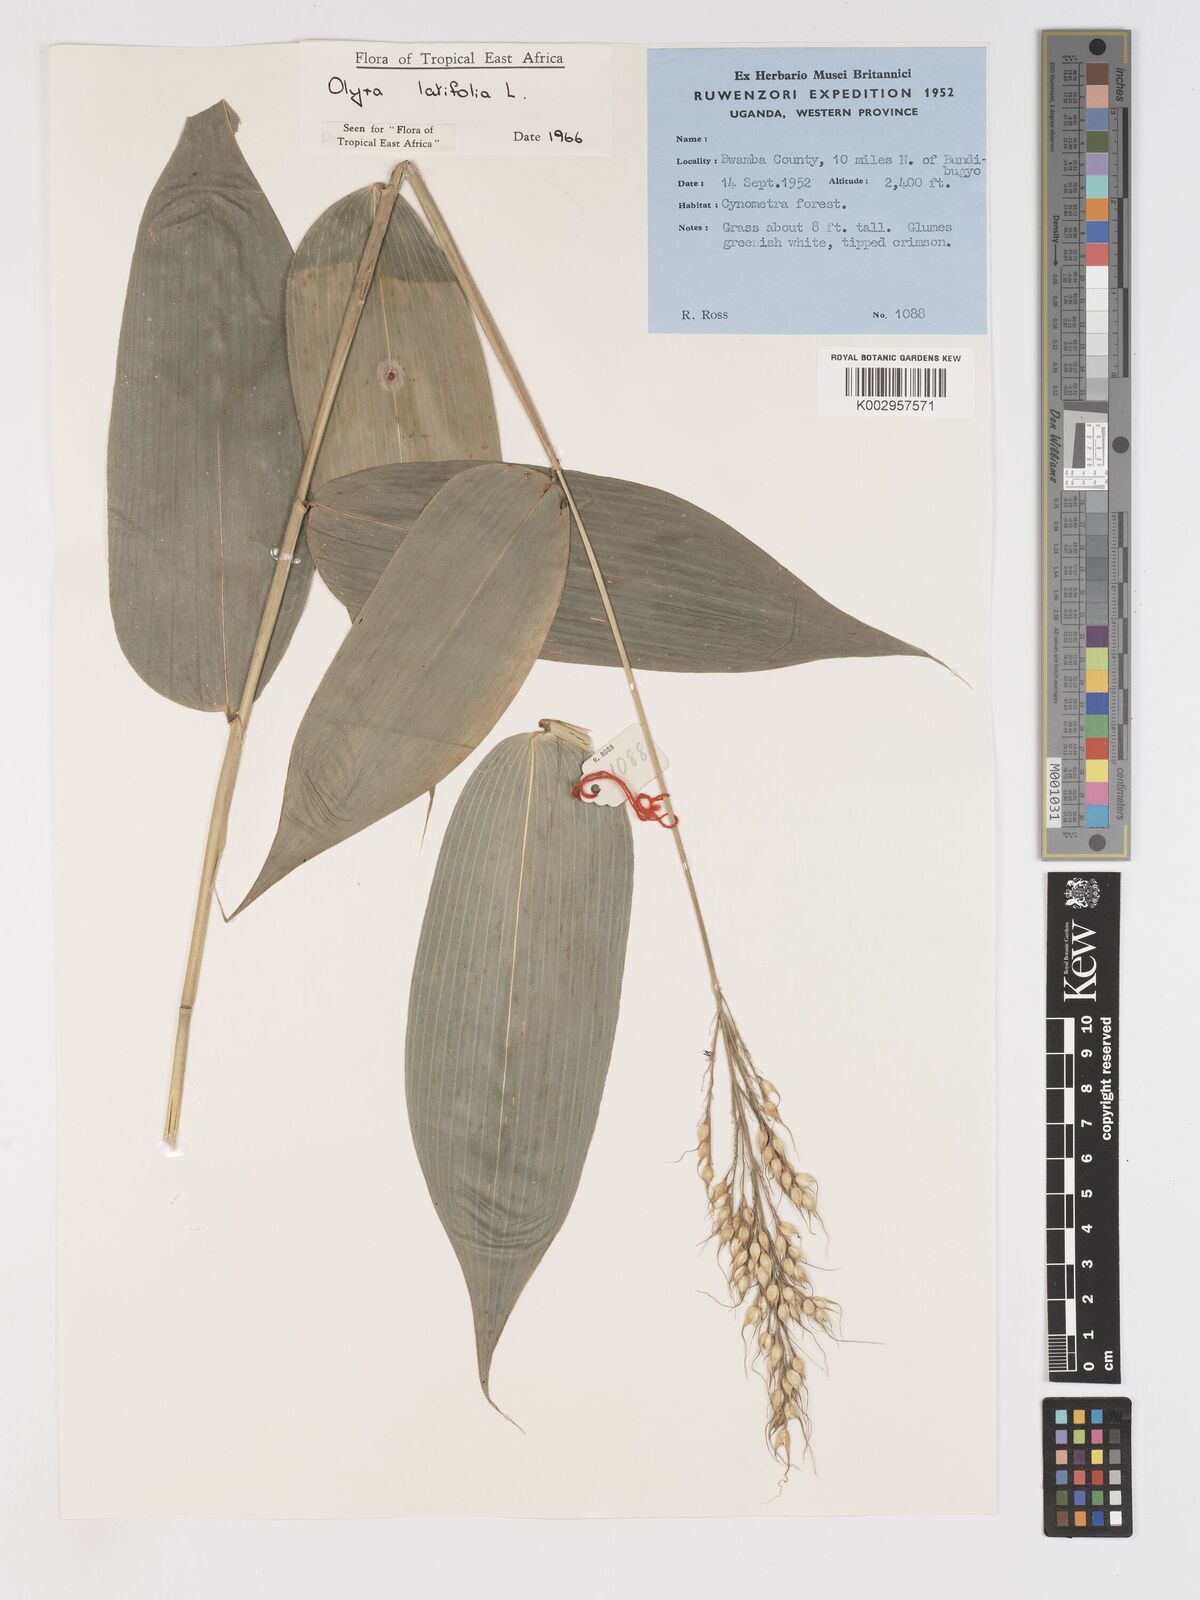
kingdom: Plantae
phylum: Tracheophyta
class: Liliopsida
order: Poales
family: Poaceae
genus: Olyra
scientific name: Olyra latifolia
